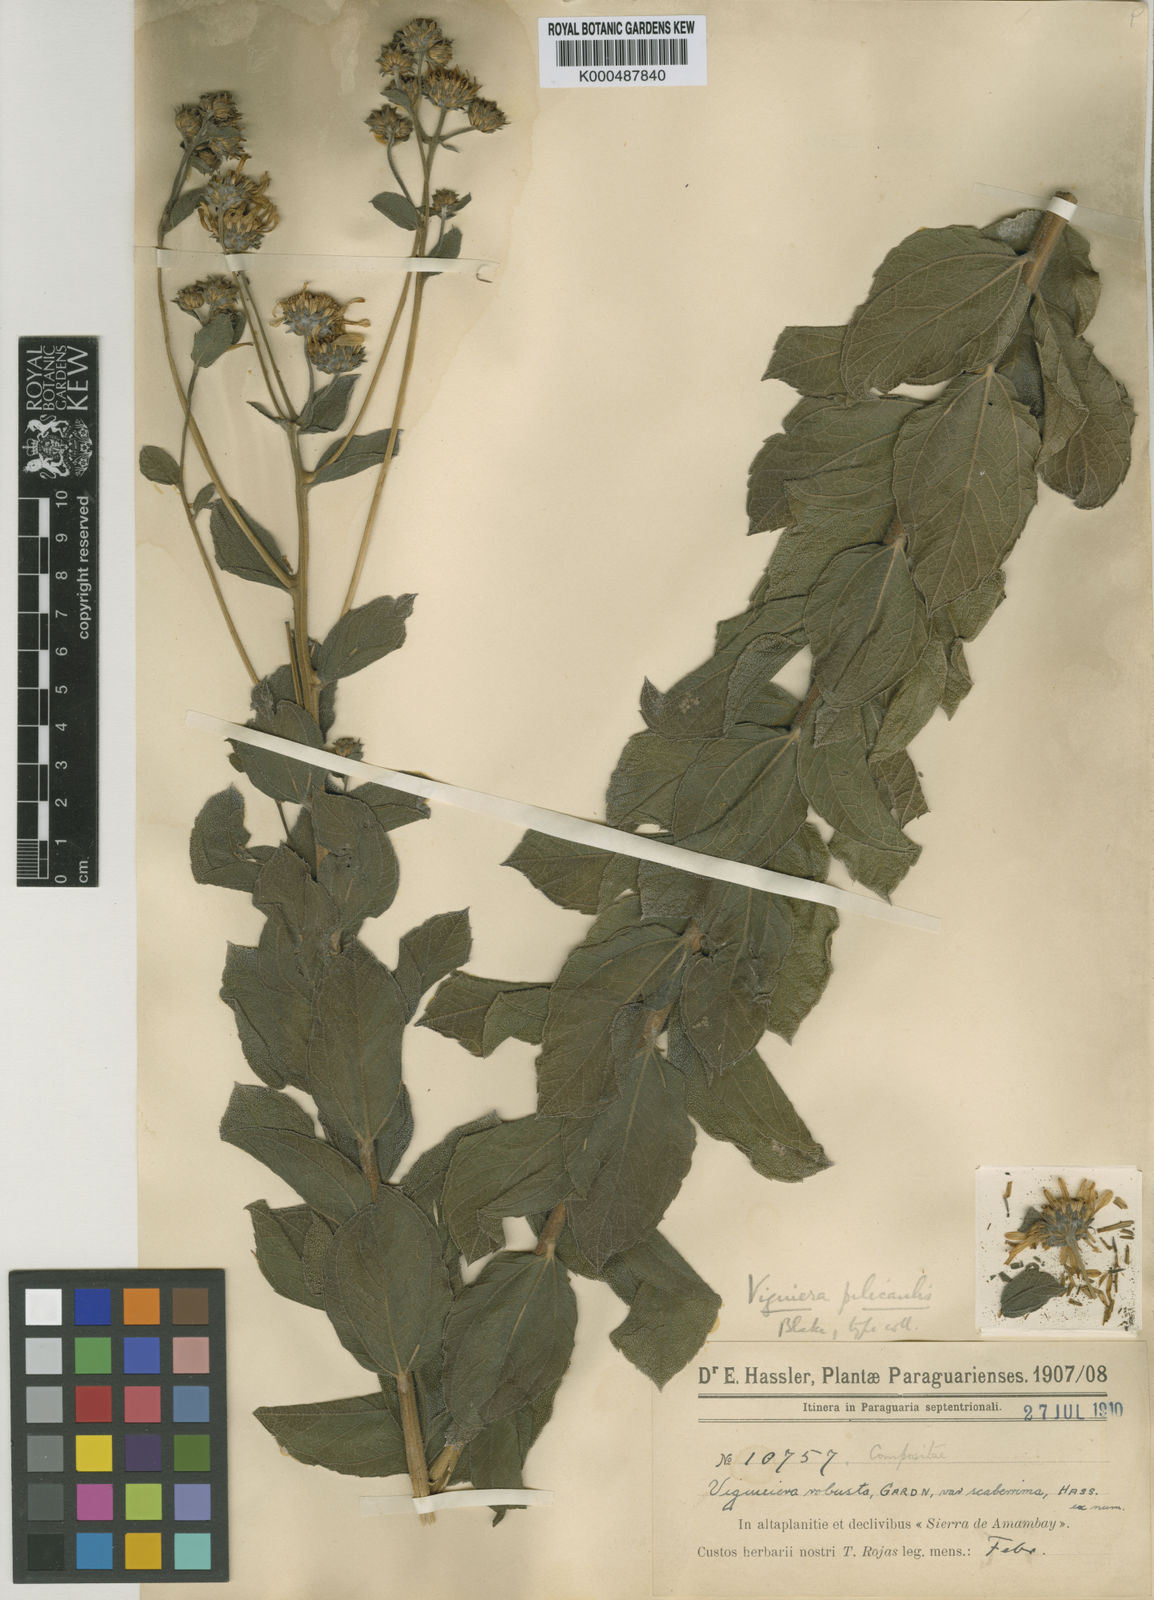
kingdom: Plantae
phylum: Tracheophyta
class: Magnoliopsida
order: Asterales
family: Asteraceae
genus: Aldama
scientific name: Aldama pilicaulis
